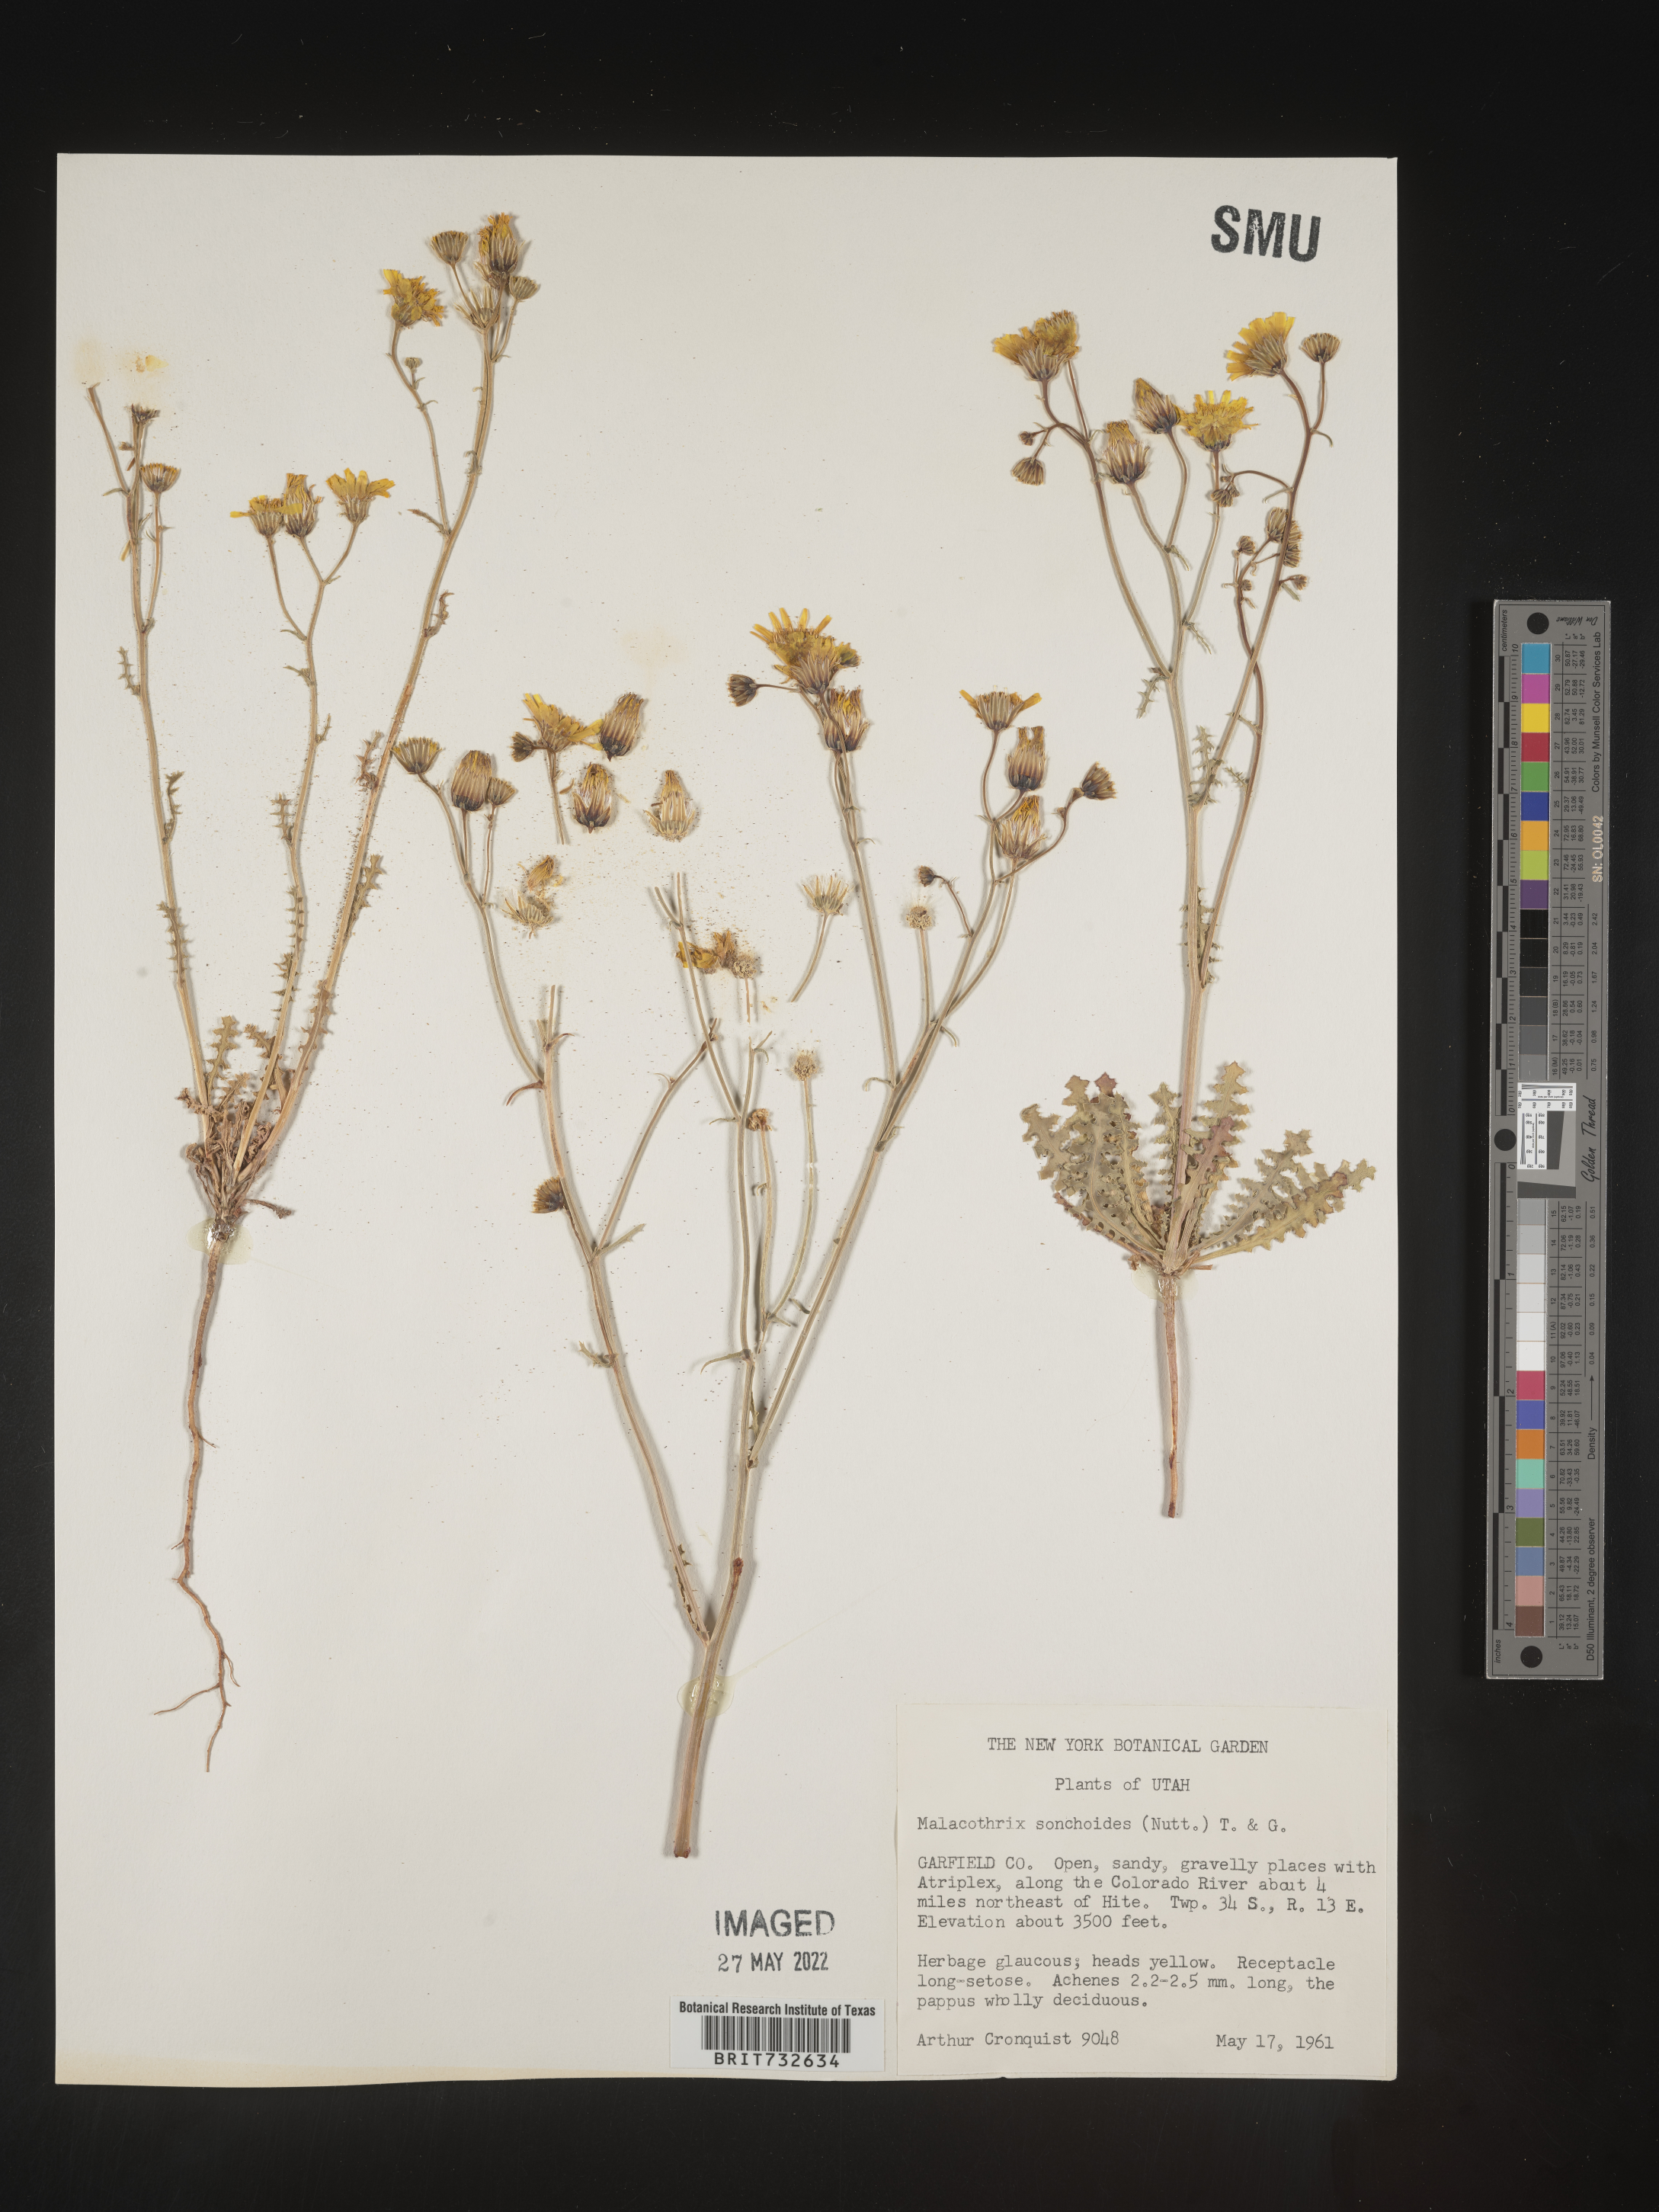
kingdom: Plantae
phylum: Tracheophyta
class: Magnoliopsida
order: Asterales
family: Asteraceae
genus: Malacothrix
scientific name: Malacothrix sonchoides
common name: Sow-thistle desert-dandelion
